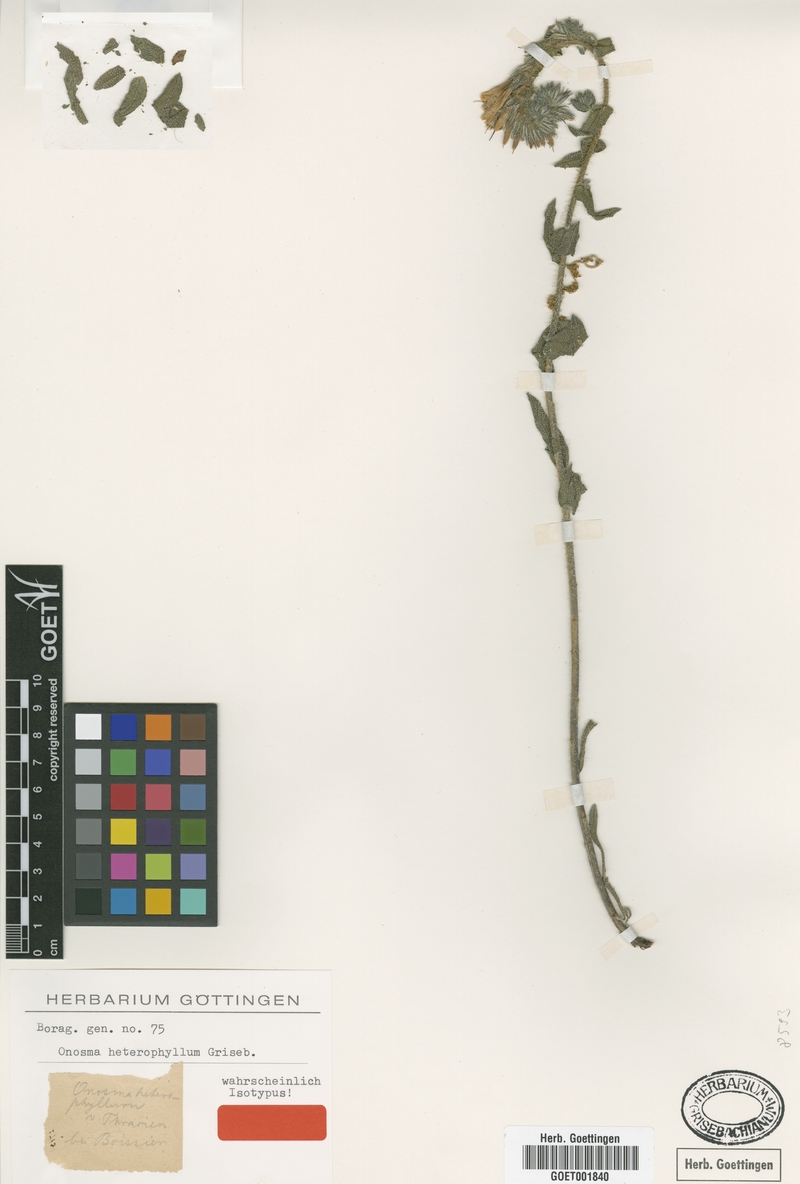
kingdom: Plantae
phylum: Tracheophyta
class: Magnoliopsida
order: Boraginales
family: Boraginaceae
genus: Onosma
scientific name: Onosma heterophylla
